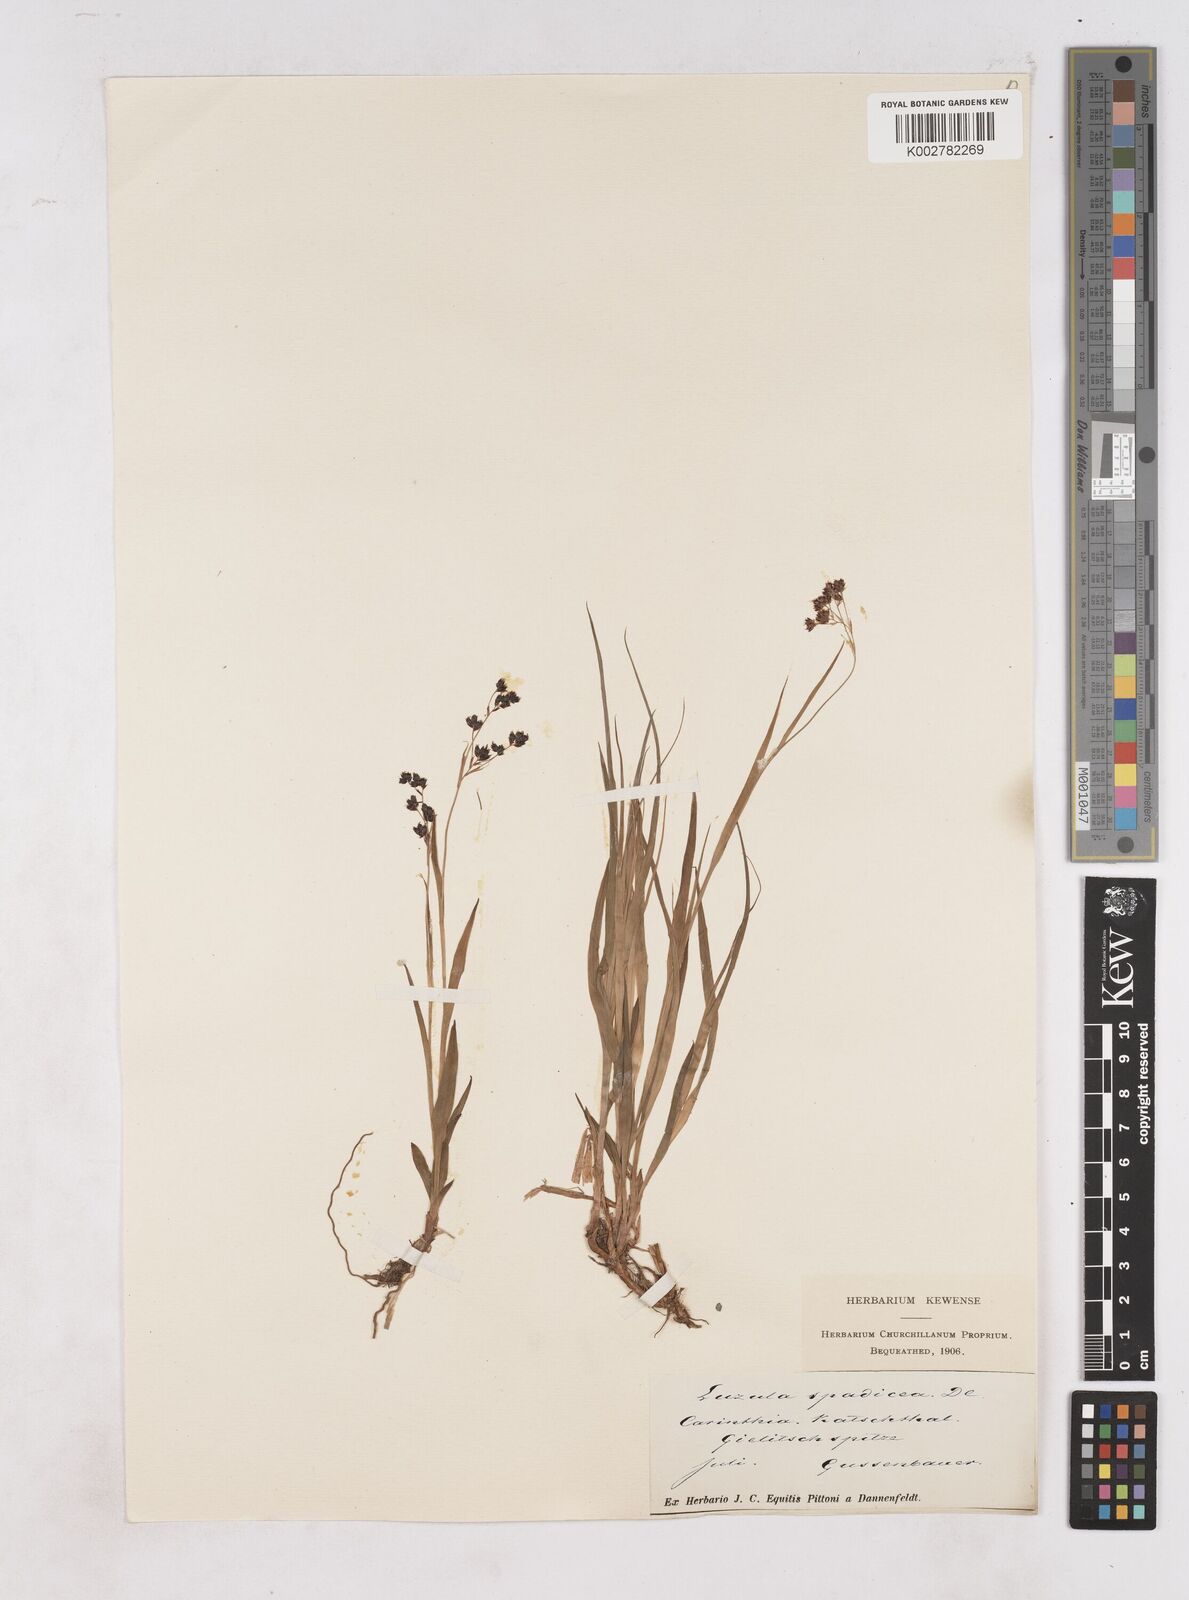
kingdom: Plantae
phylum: Tracheophyta
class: Liliopsida
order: Poales
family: Juncaceae
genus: Luzula
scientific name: Luzula alpinopilosa
